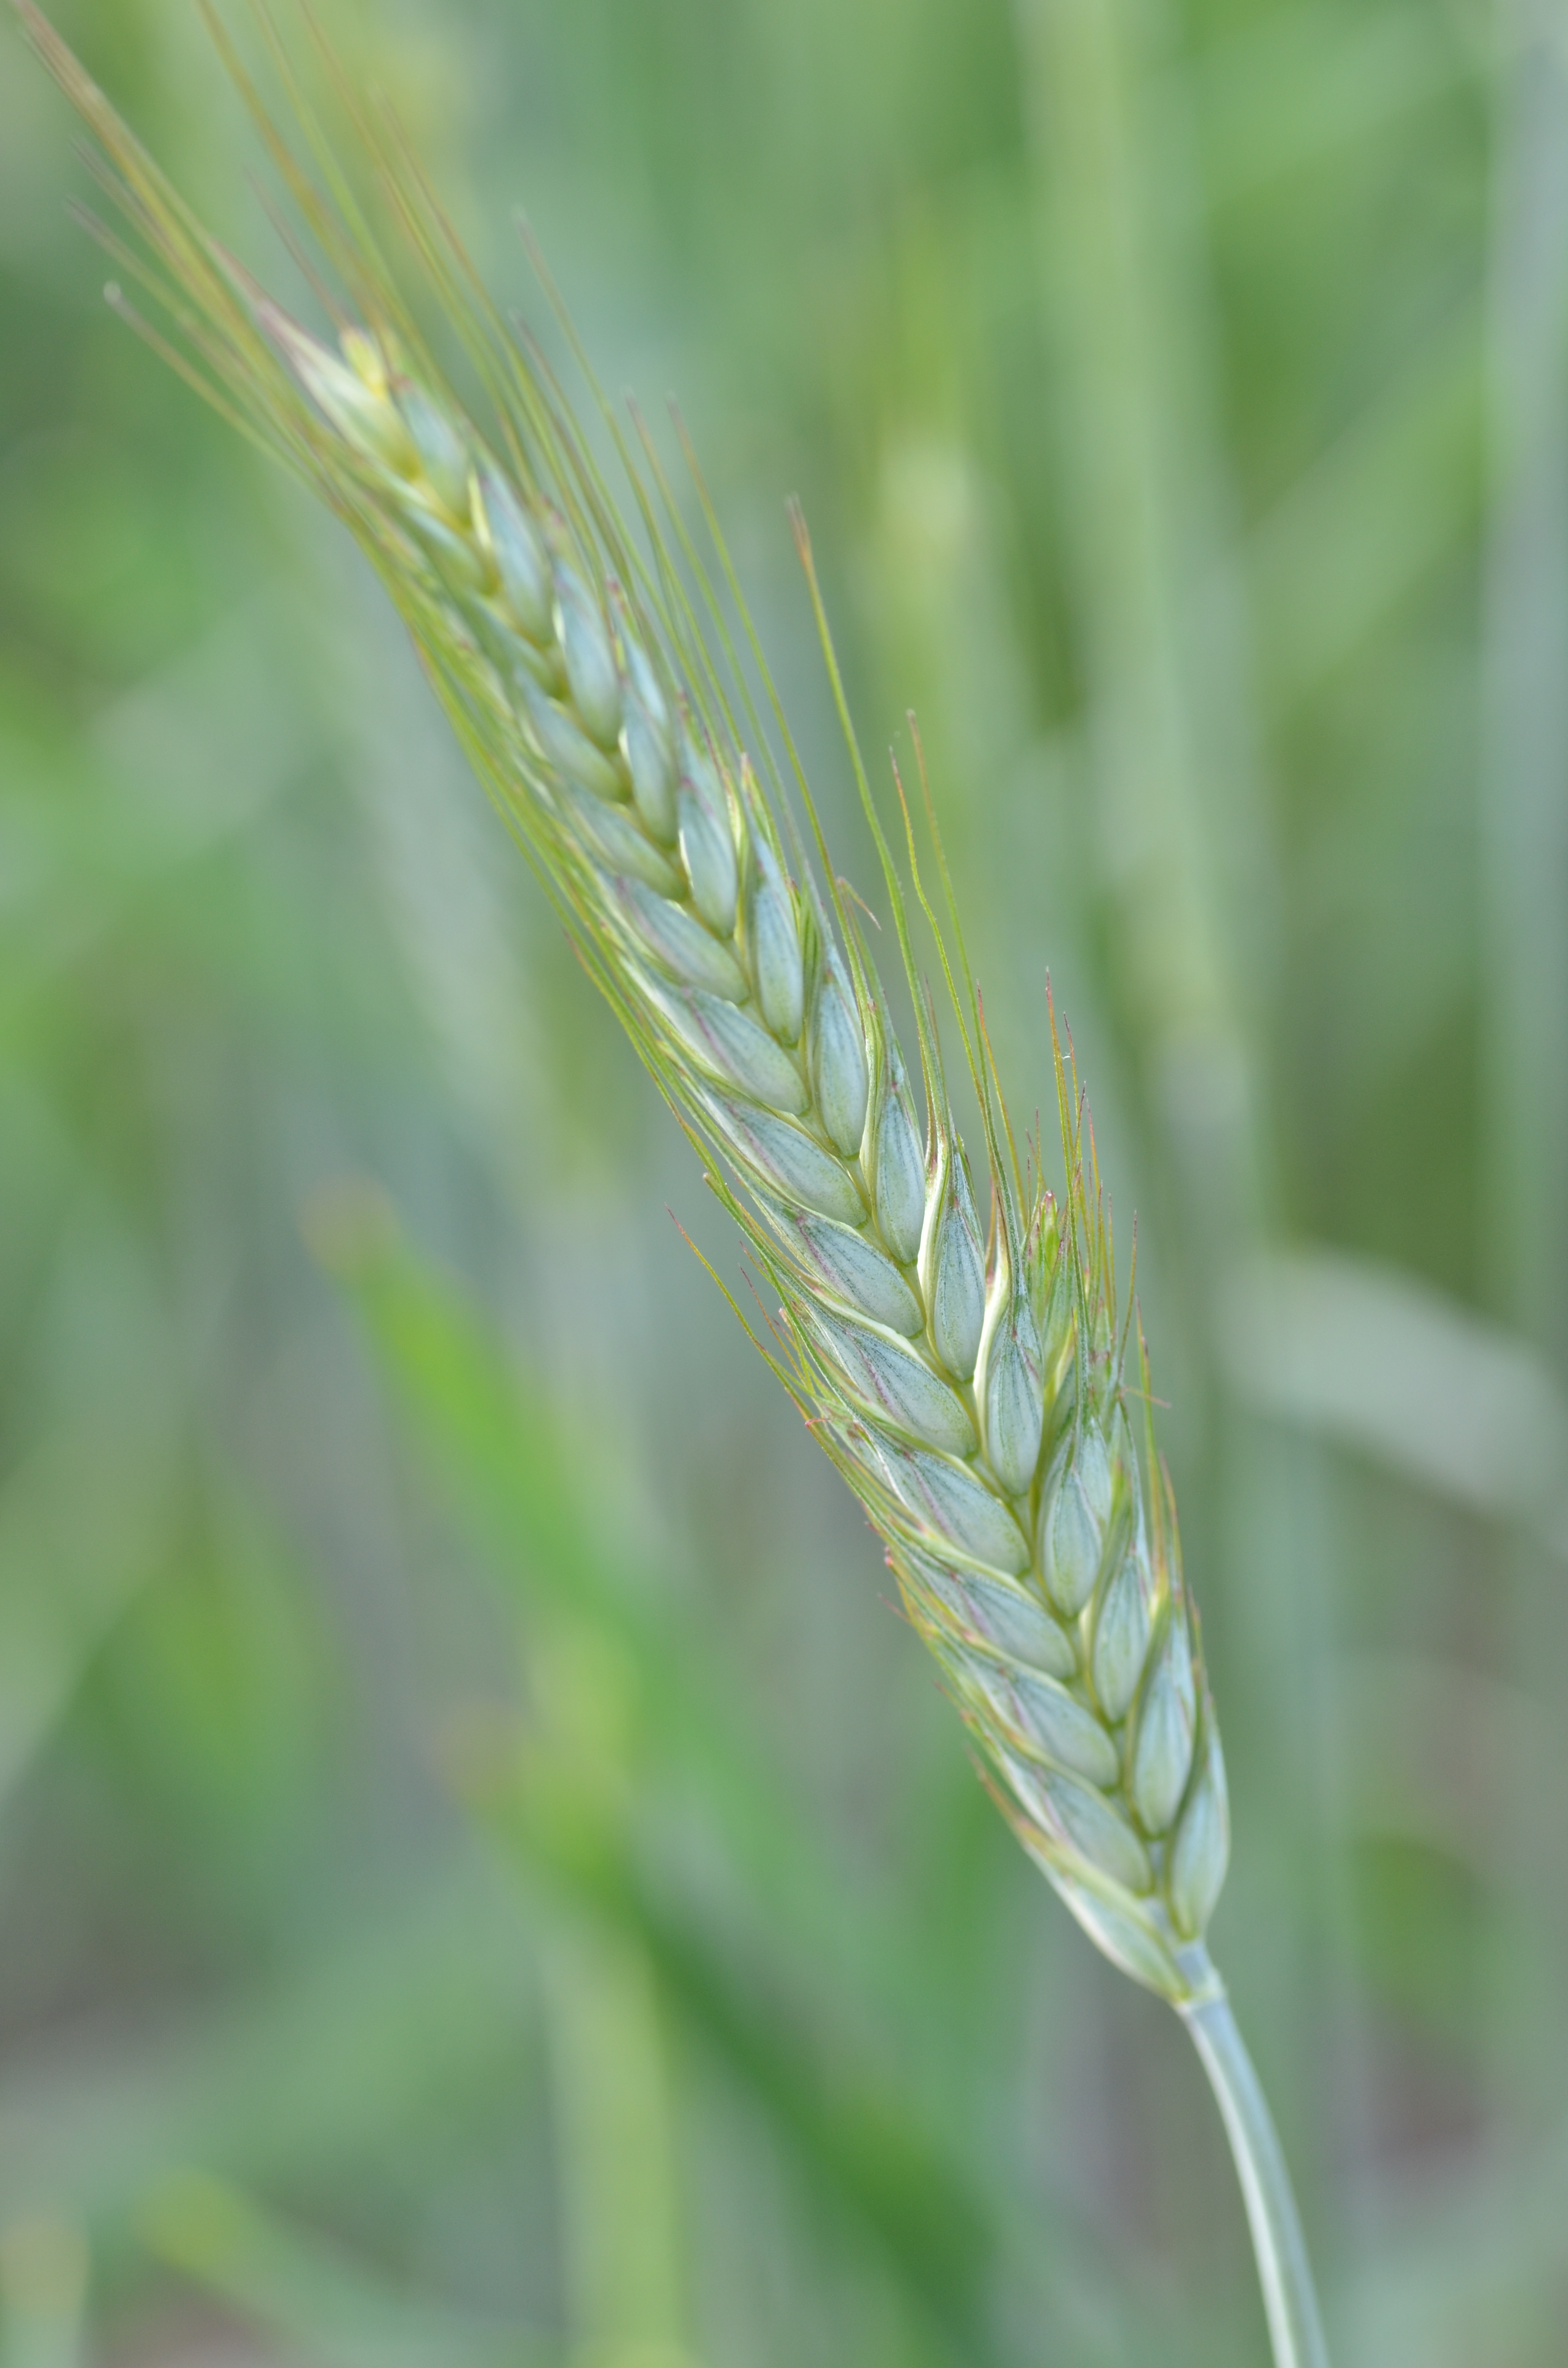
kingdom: Plantae
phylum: Tracheophyta
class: Liliopsida
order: Poales
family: Poaceae
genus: Triticosecale
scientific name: Triticosecale
